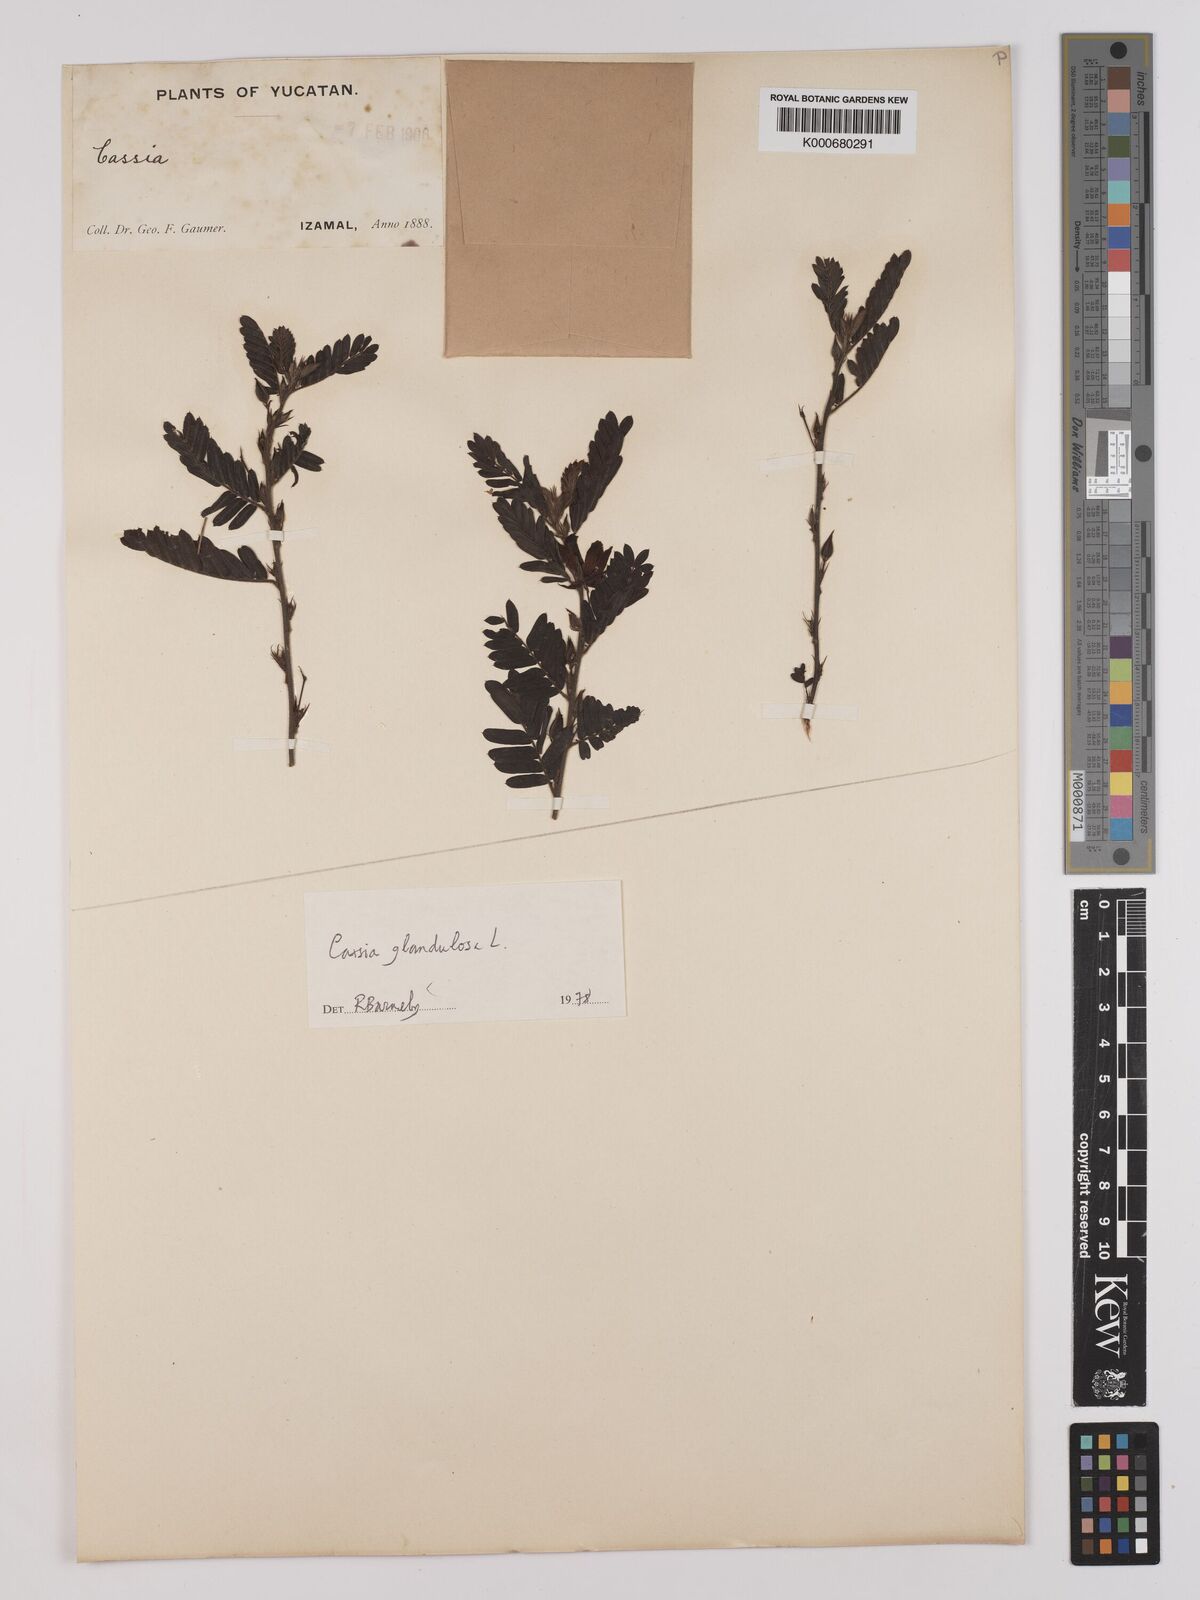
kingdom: Plantae
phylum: Tracheophyta
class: Magnoliopsida
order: Fabales
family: Fabaceae
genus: Chamaecrista
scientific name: Chamaecrista glandulosa
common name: Wild peas
